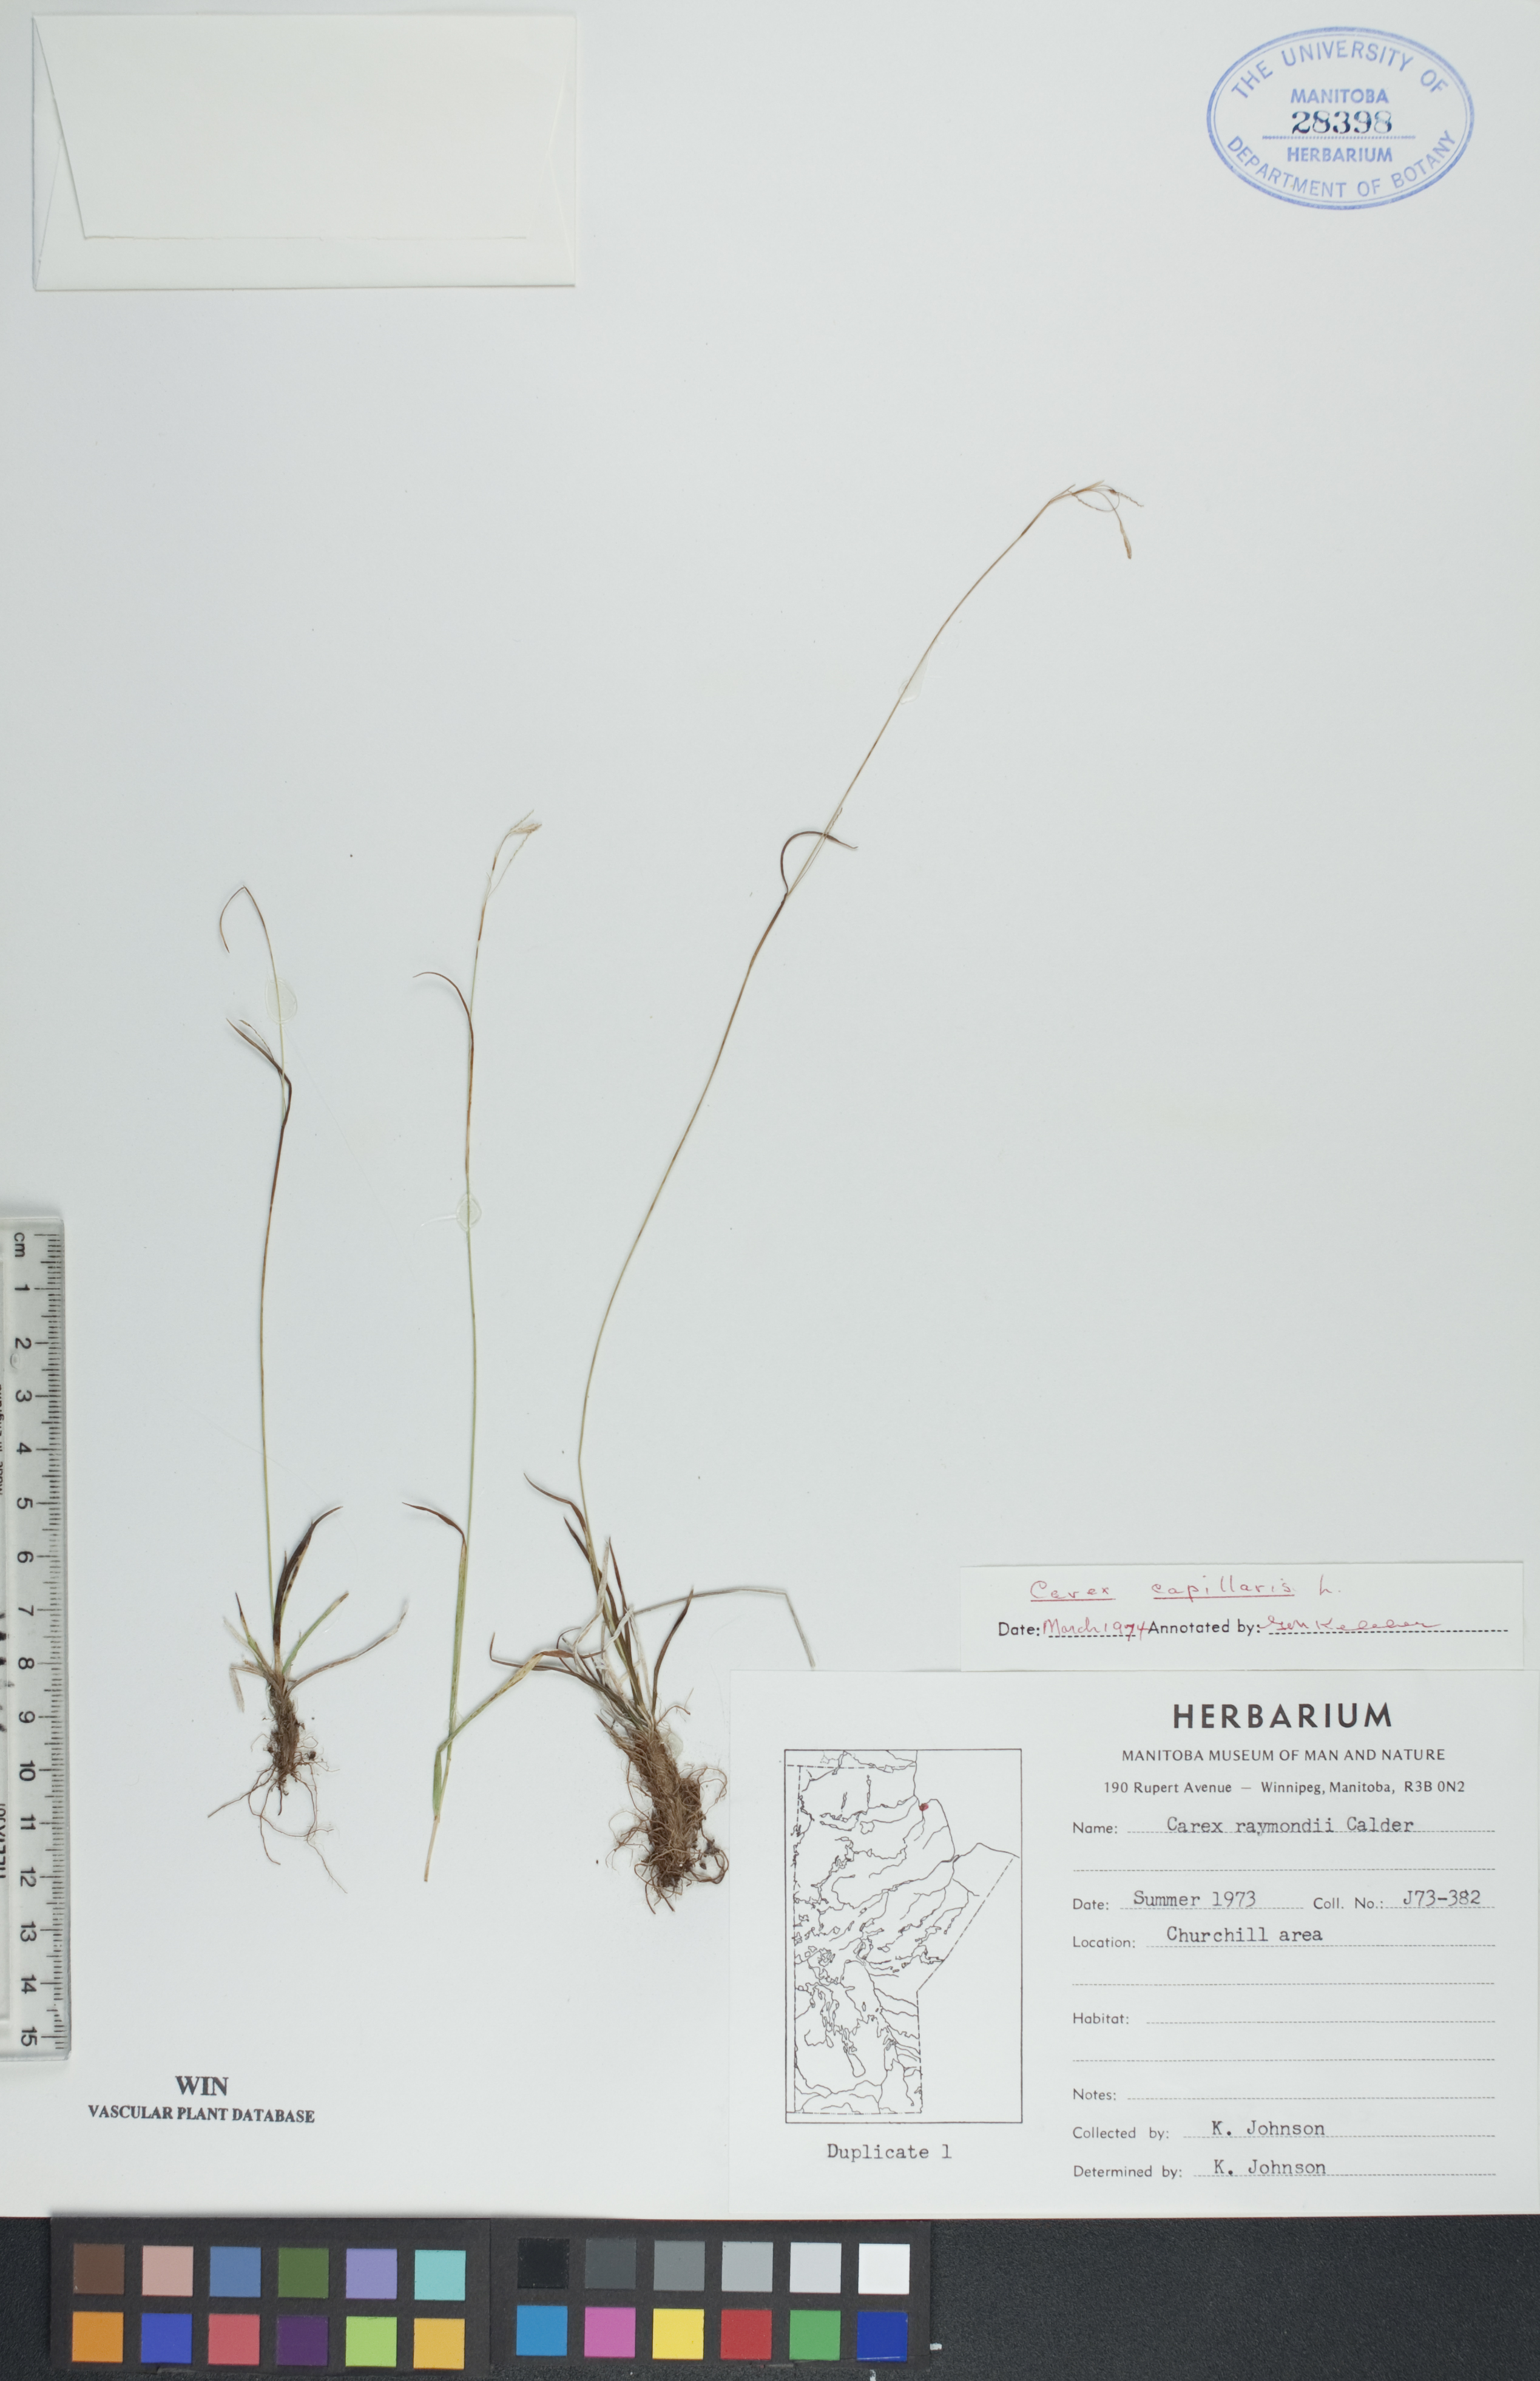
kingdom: Plantae
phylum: Tracheophyta
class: Liliopsida
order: Poales
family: Cyperaceae
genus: Carex
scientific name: Carex capillaris
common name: Hair sedge
